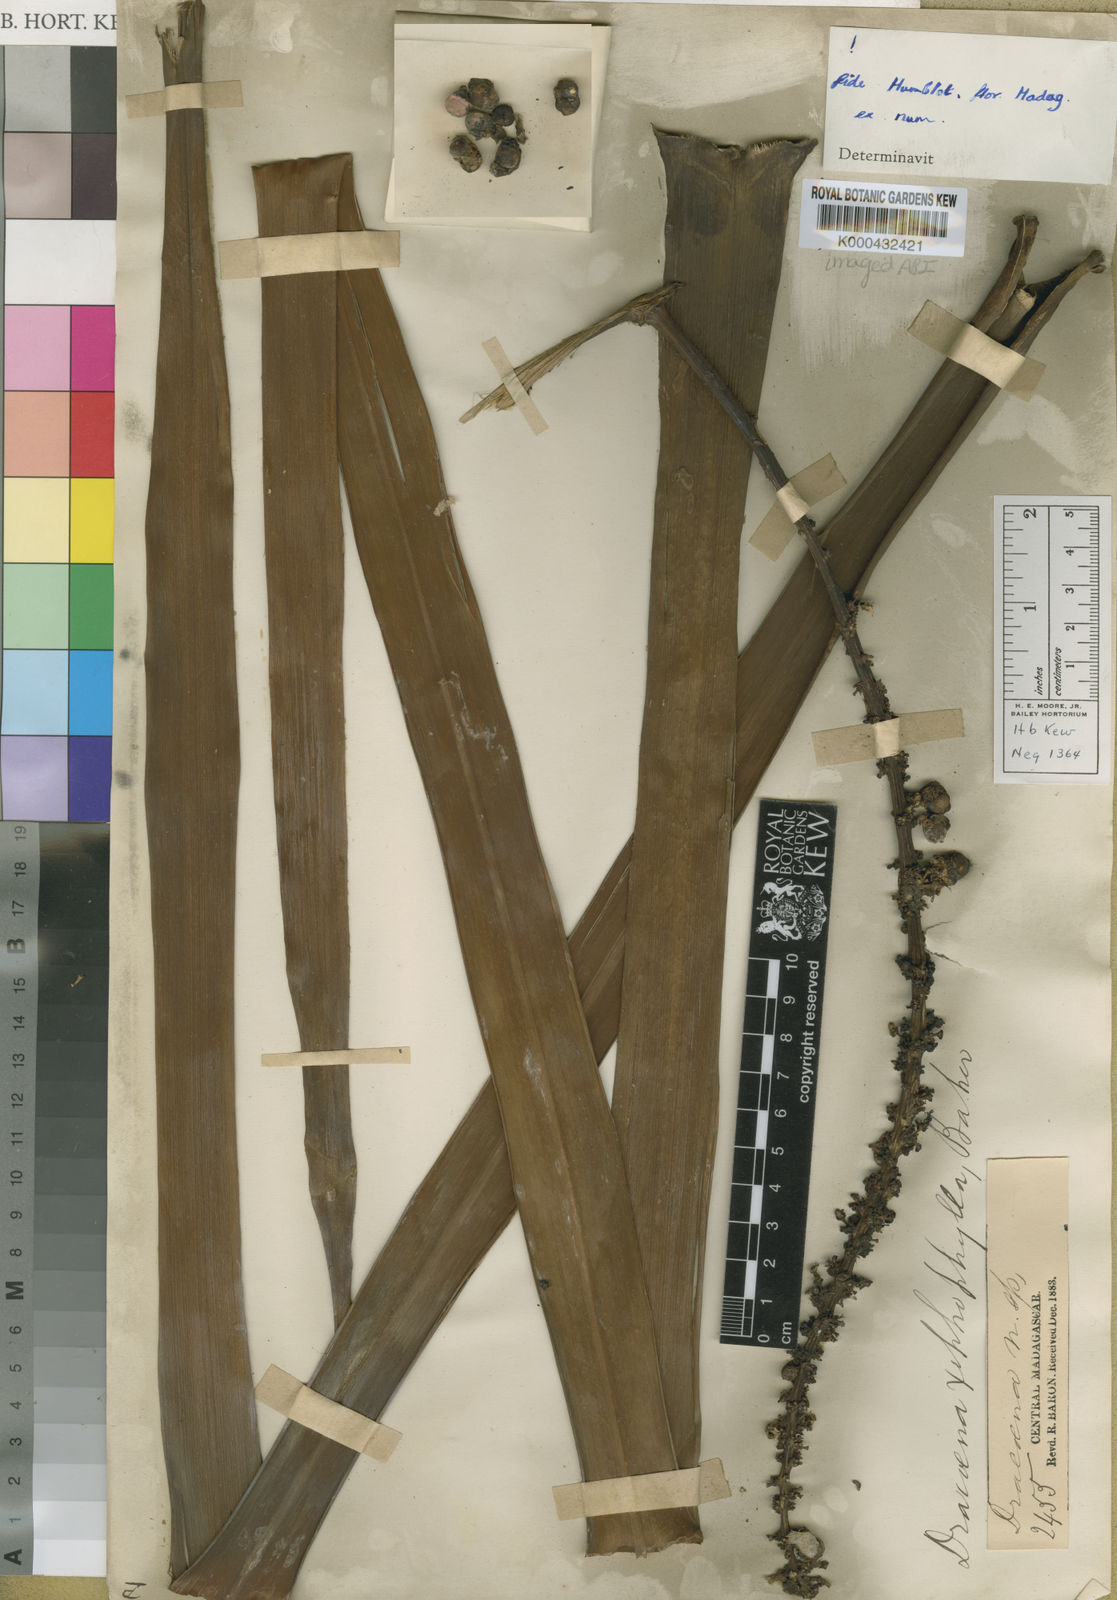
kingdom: Plantae
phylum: Tracheophyta
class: Liliopsida
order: Asparagales
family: Asparagaceae
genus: Dracaena
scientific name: Dracaena xiphophylla
